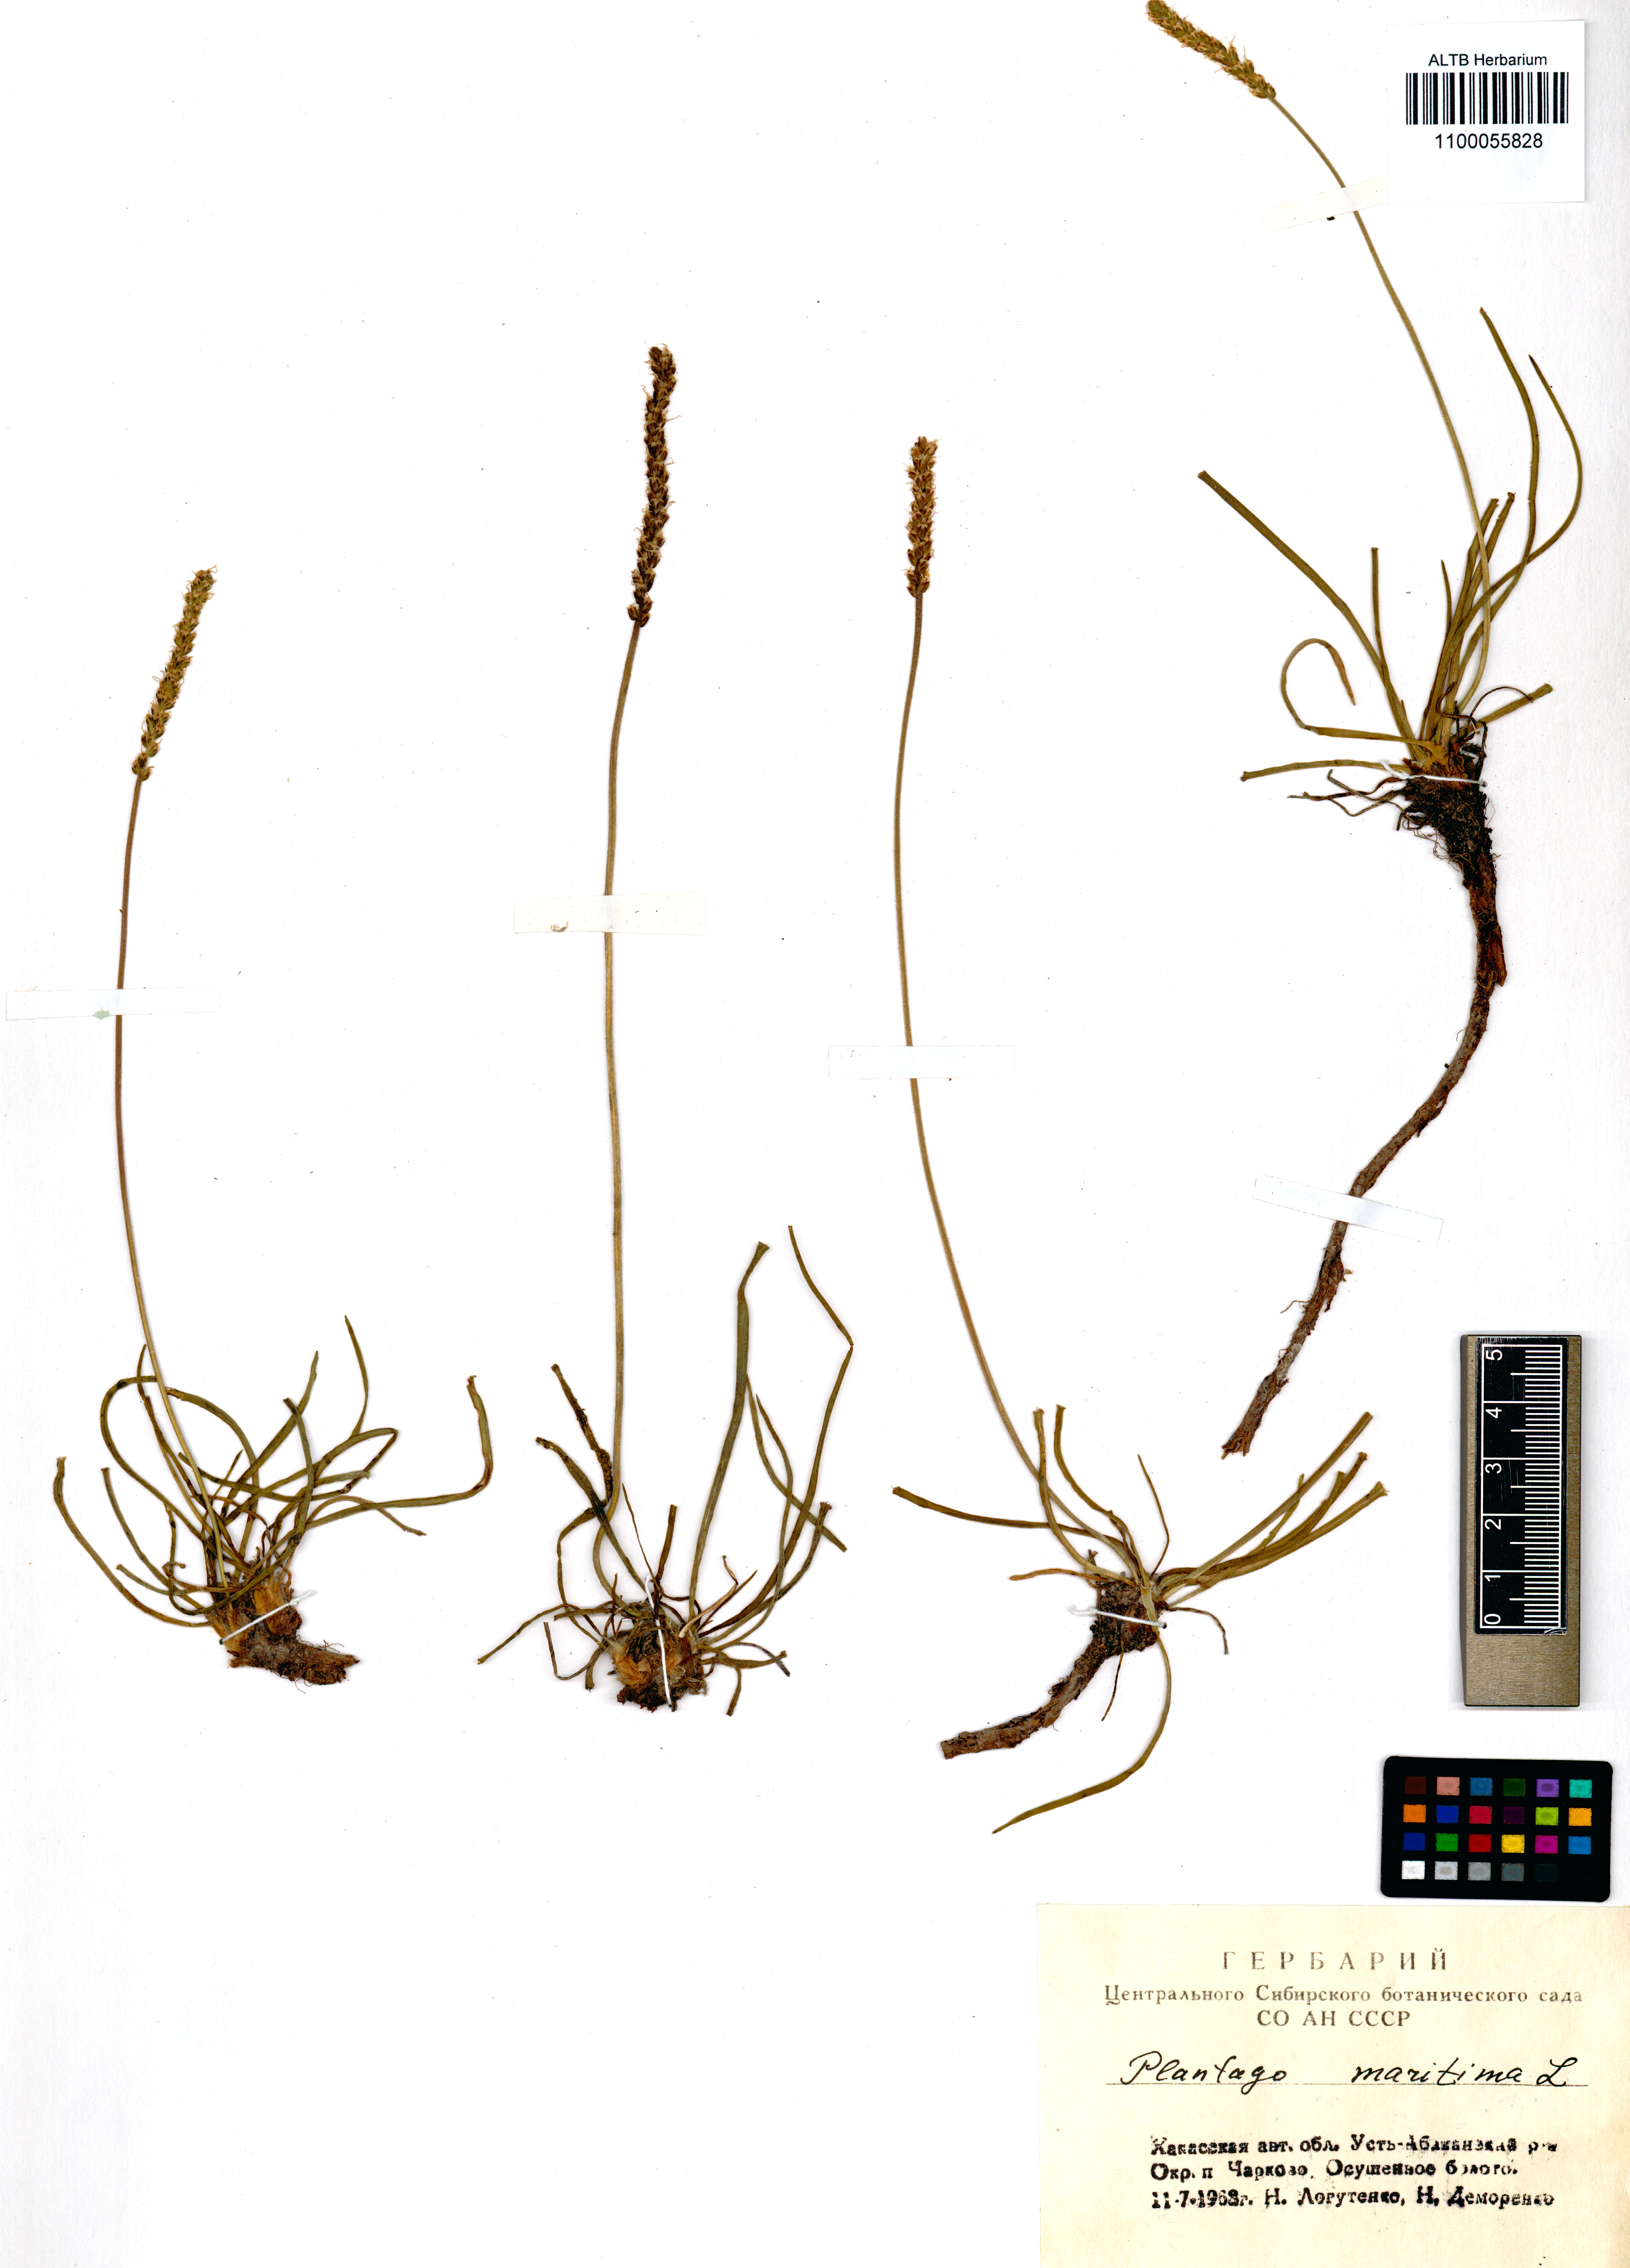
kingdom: Plantae
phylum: Tracheophyta
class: Magnoliopsida
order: Lamiales
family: Plantaginaceae
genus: Plantago
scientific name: Plantago maritima
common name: Sea plantain
